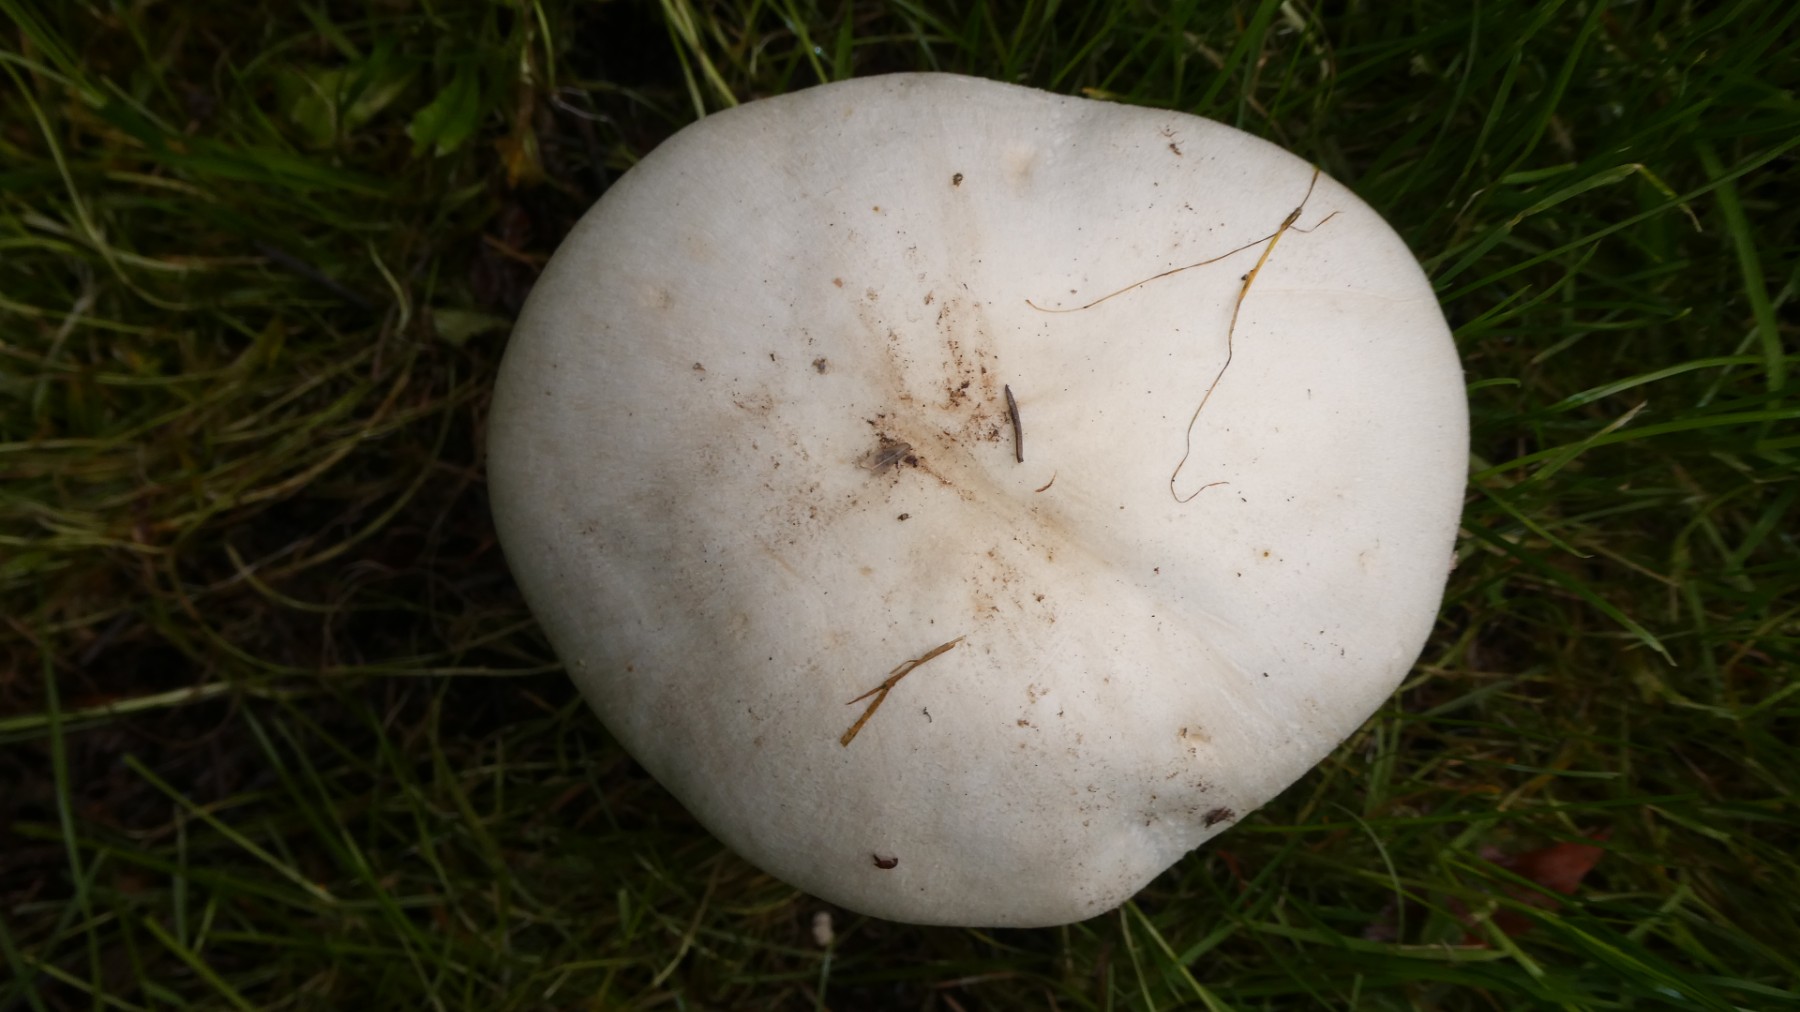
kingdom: Fungi
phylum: Basidiomycota
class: Agaricomycetes
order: Agaricales
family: Agaricaceae
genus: Agaricus
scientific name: Agaricus arvensis
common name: ager-champignon
